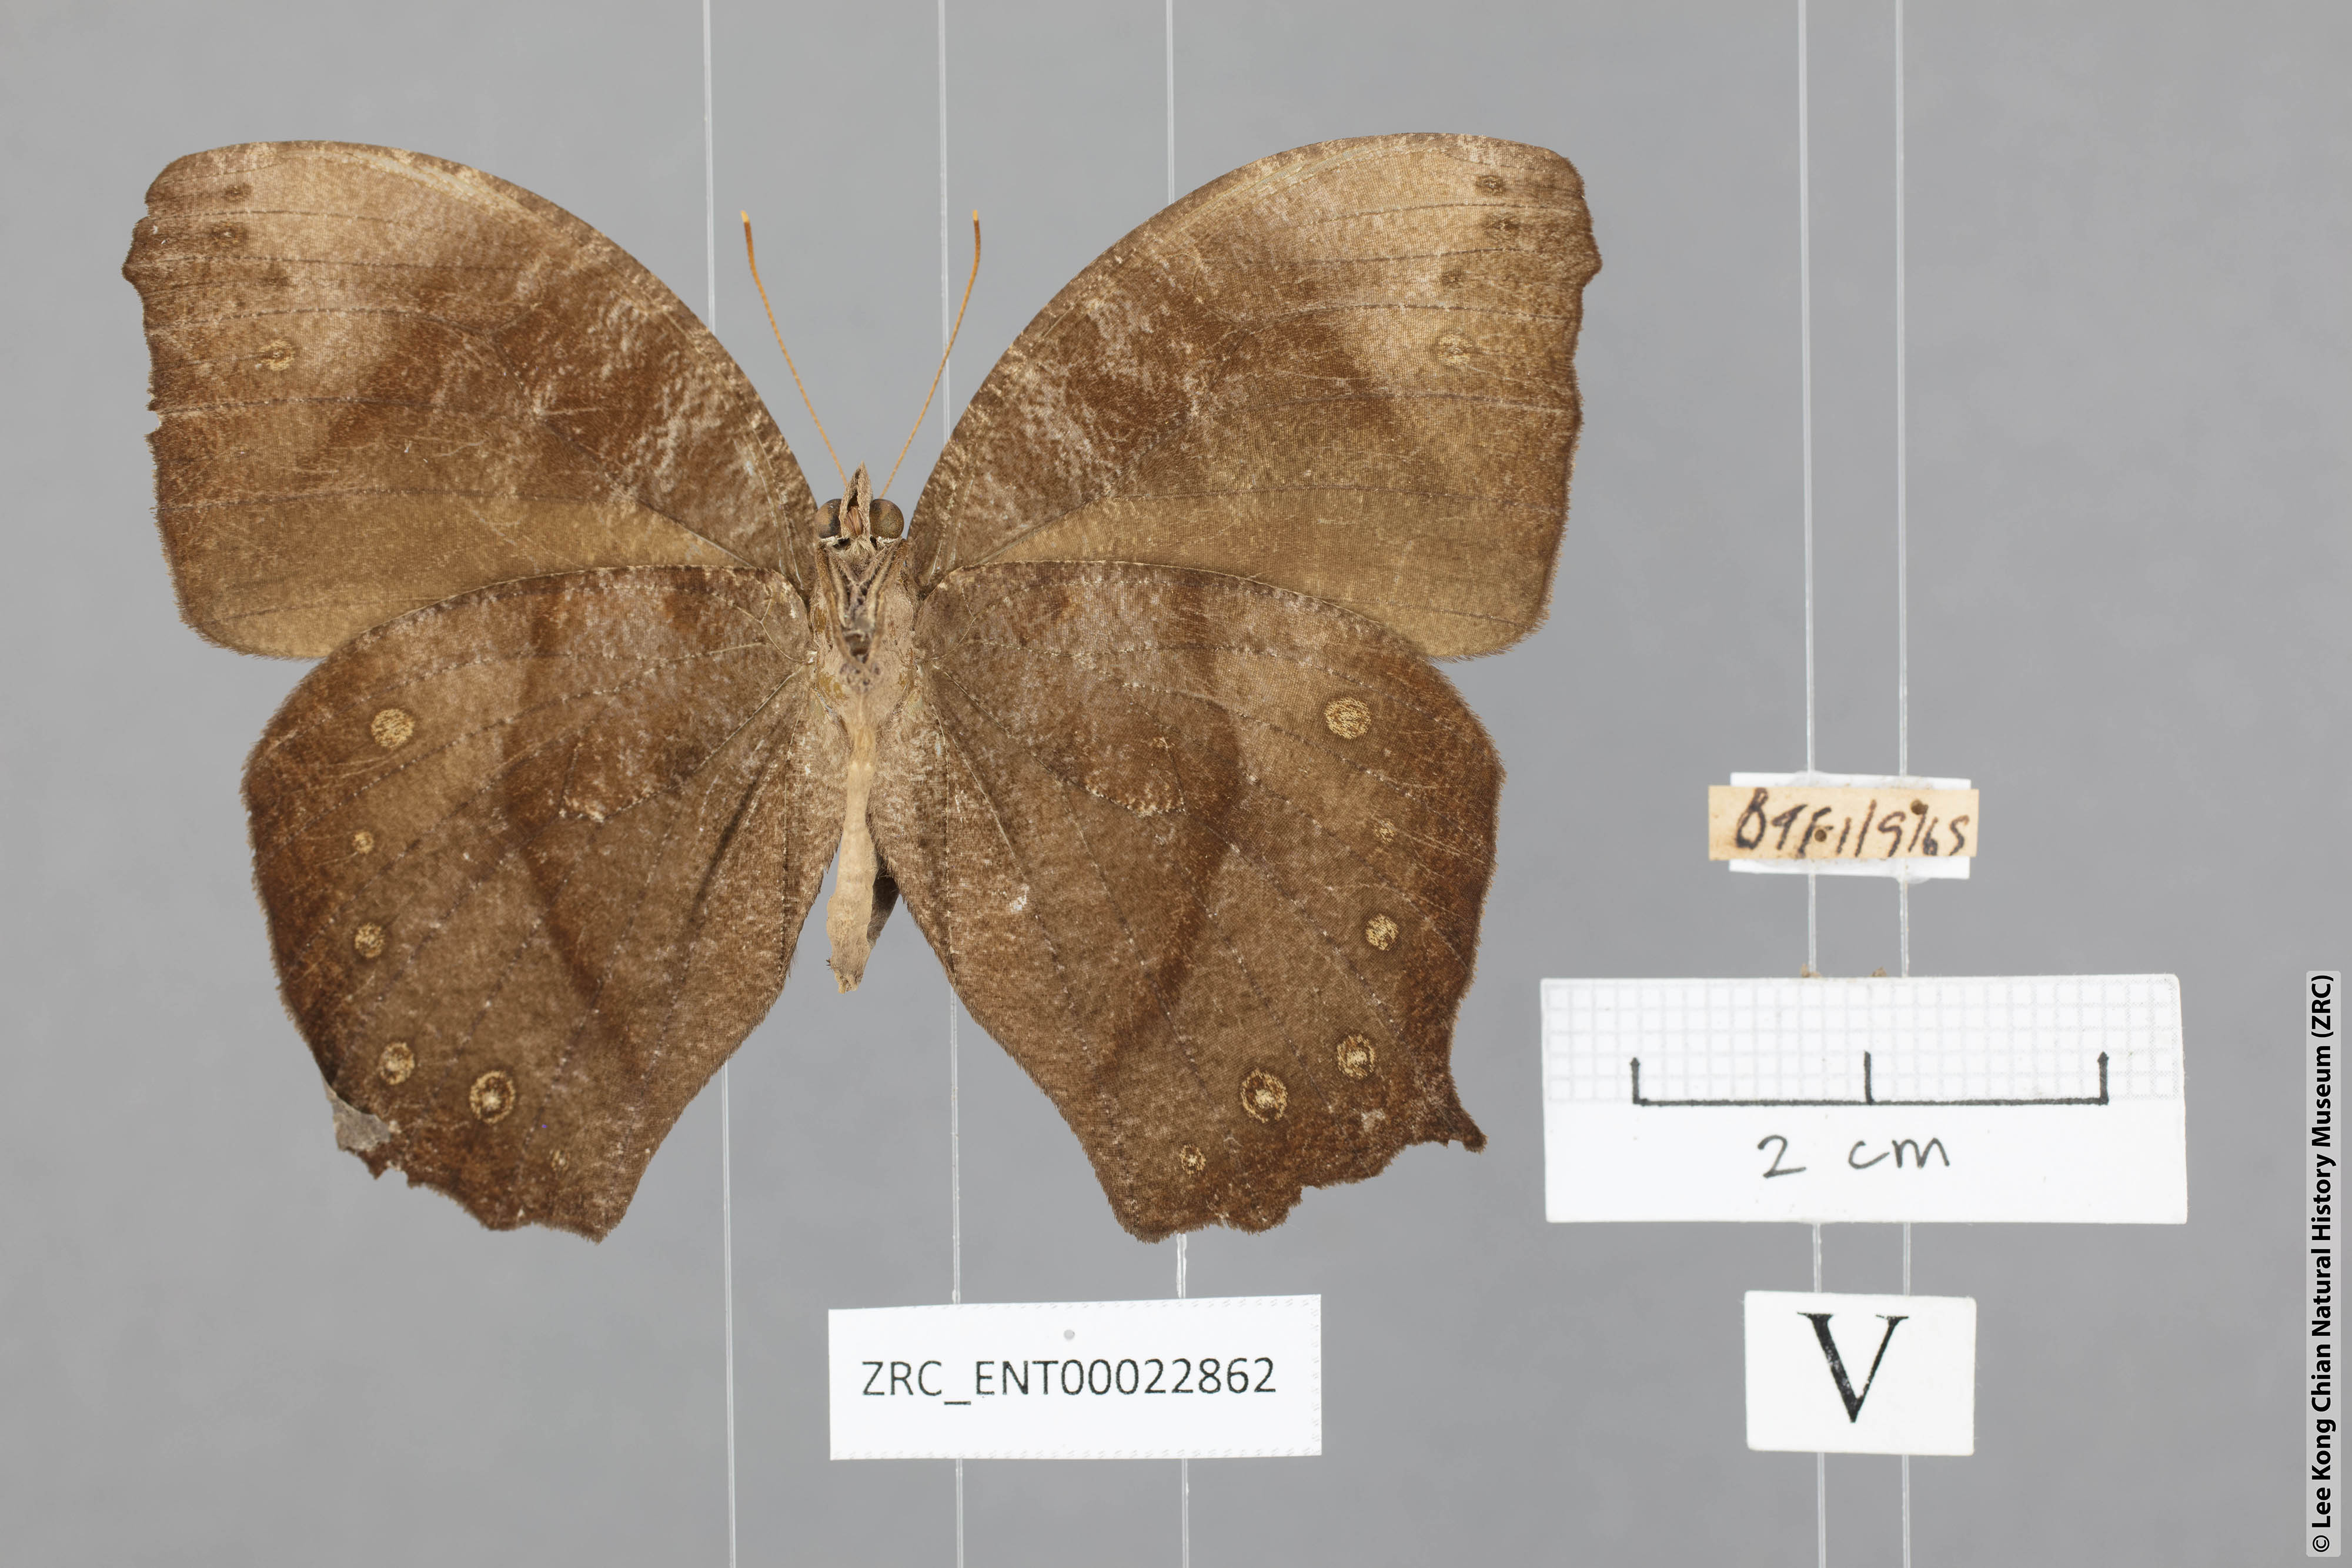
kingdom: Animalia
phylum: Arthropoda
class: Insecta
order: Lepidoptera
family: Nymphalidae
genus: Melanitis
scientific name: Melanitis phedima
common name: Dark evening brown
